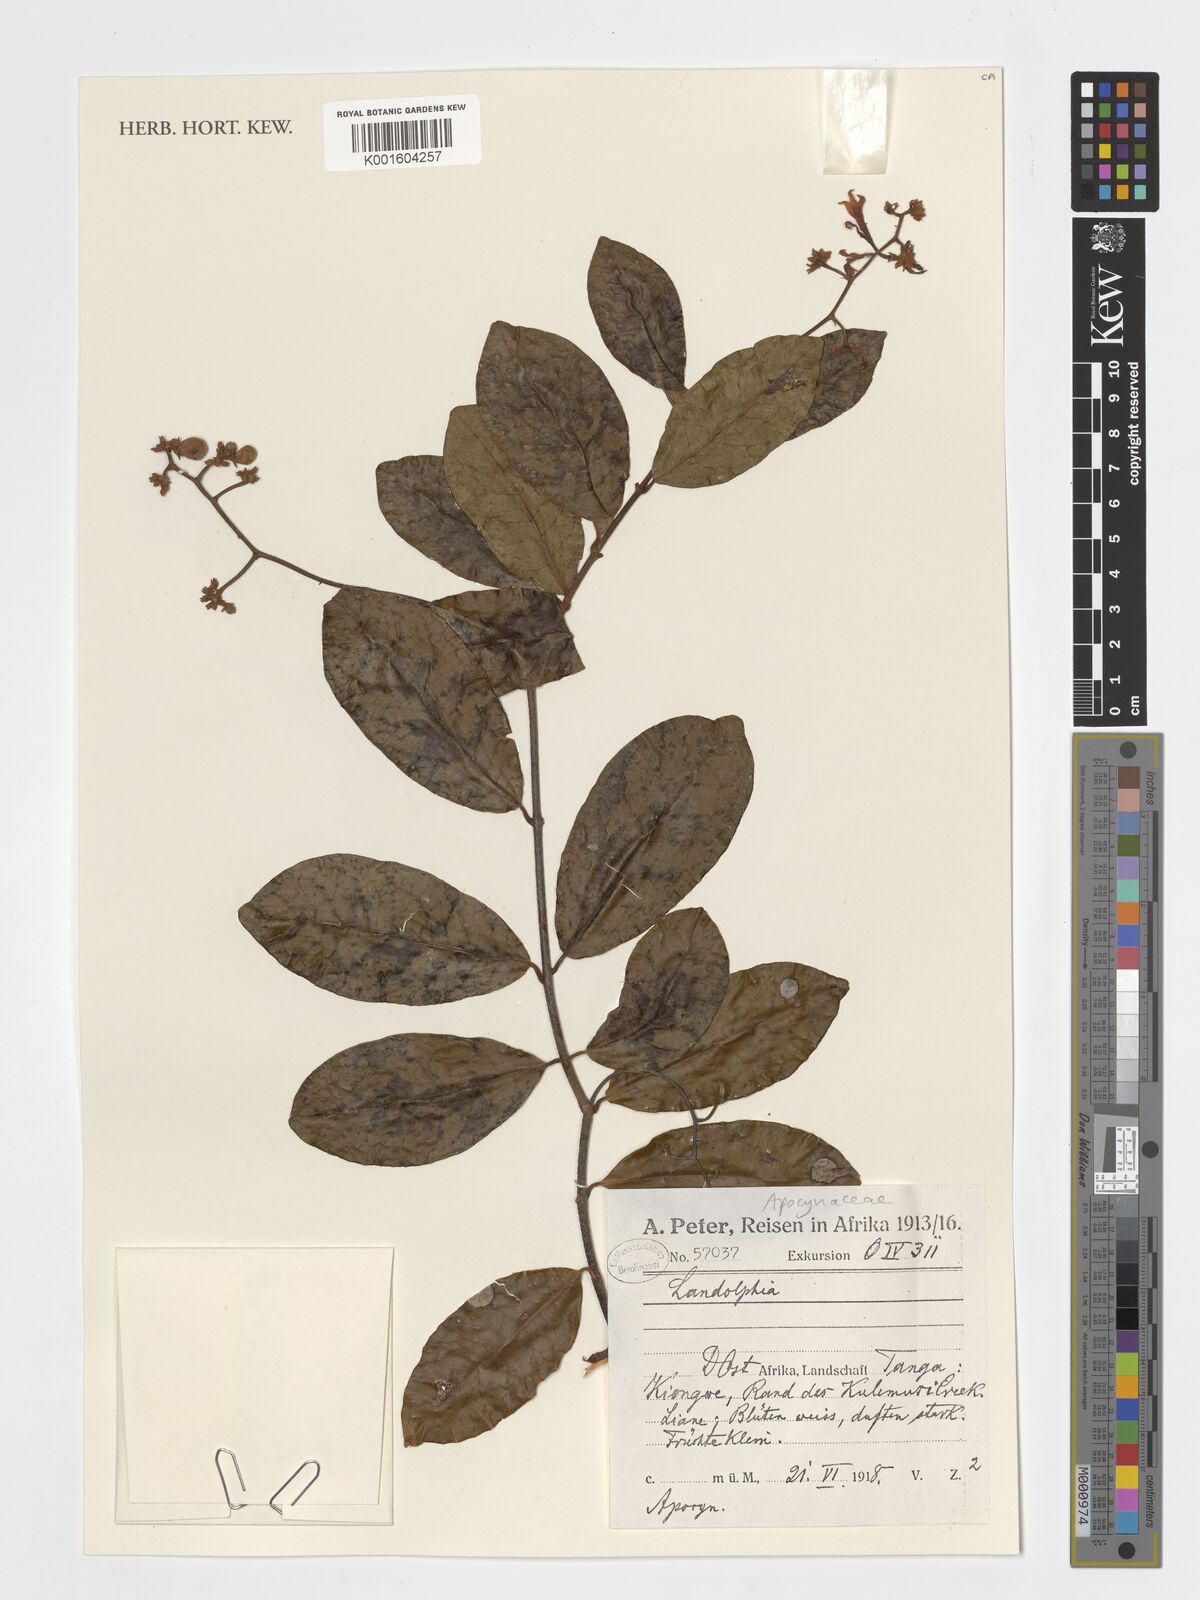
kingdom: Plantae
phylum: Tracheophyta
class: Magnoliopsida
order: Gentianales
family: Apocynaceae
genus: Landolphia
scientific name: Landolphia
